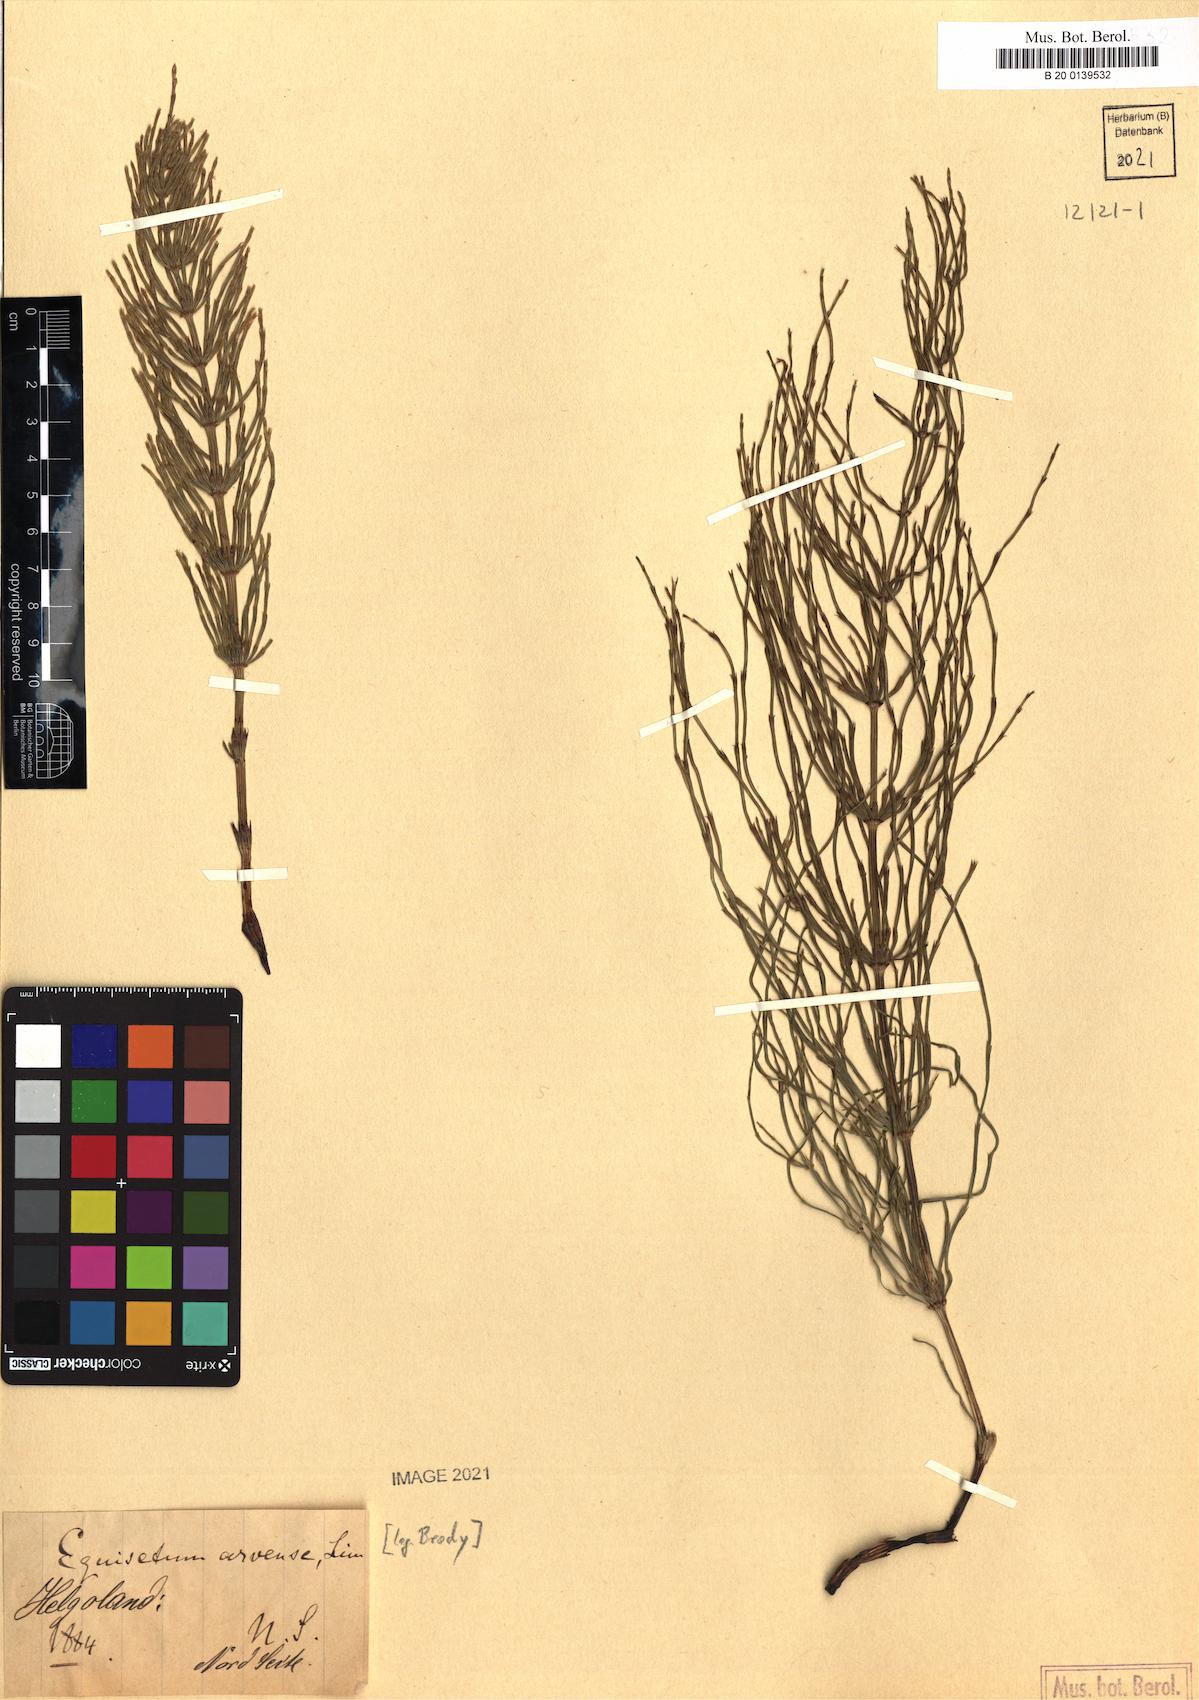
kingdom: Plantae
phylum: Tracheophyta
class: Polypodiopsida
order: Equisetales
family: Equisetaceae
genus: Equisetum
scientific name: Equisetum arvense
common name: Field horsetail
